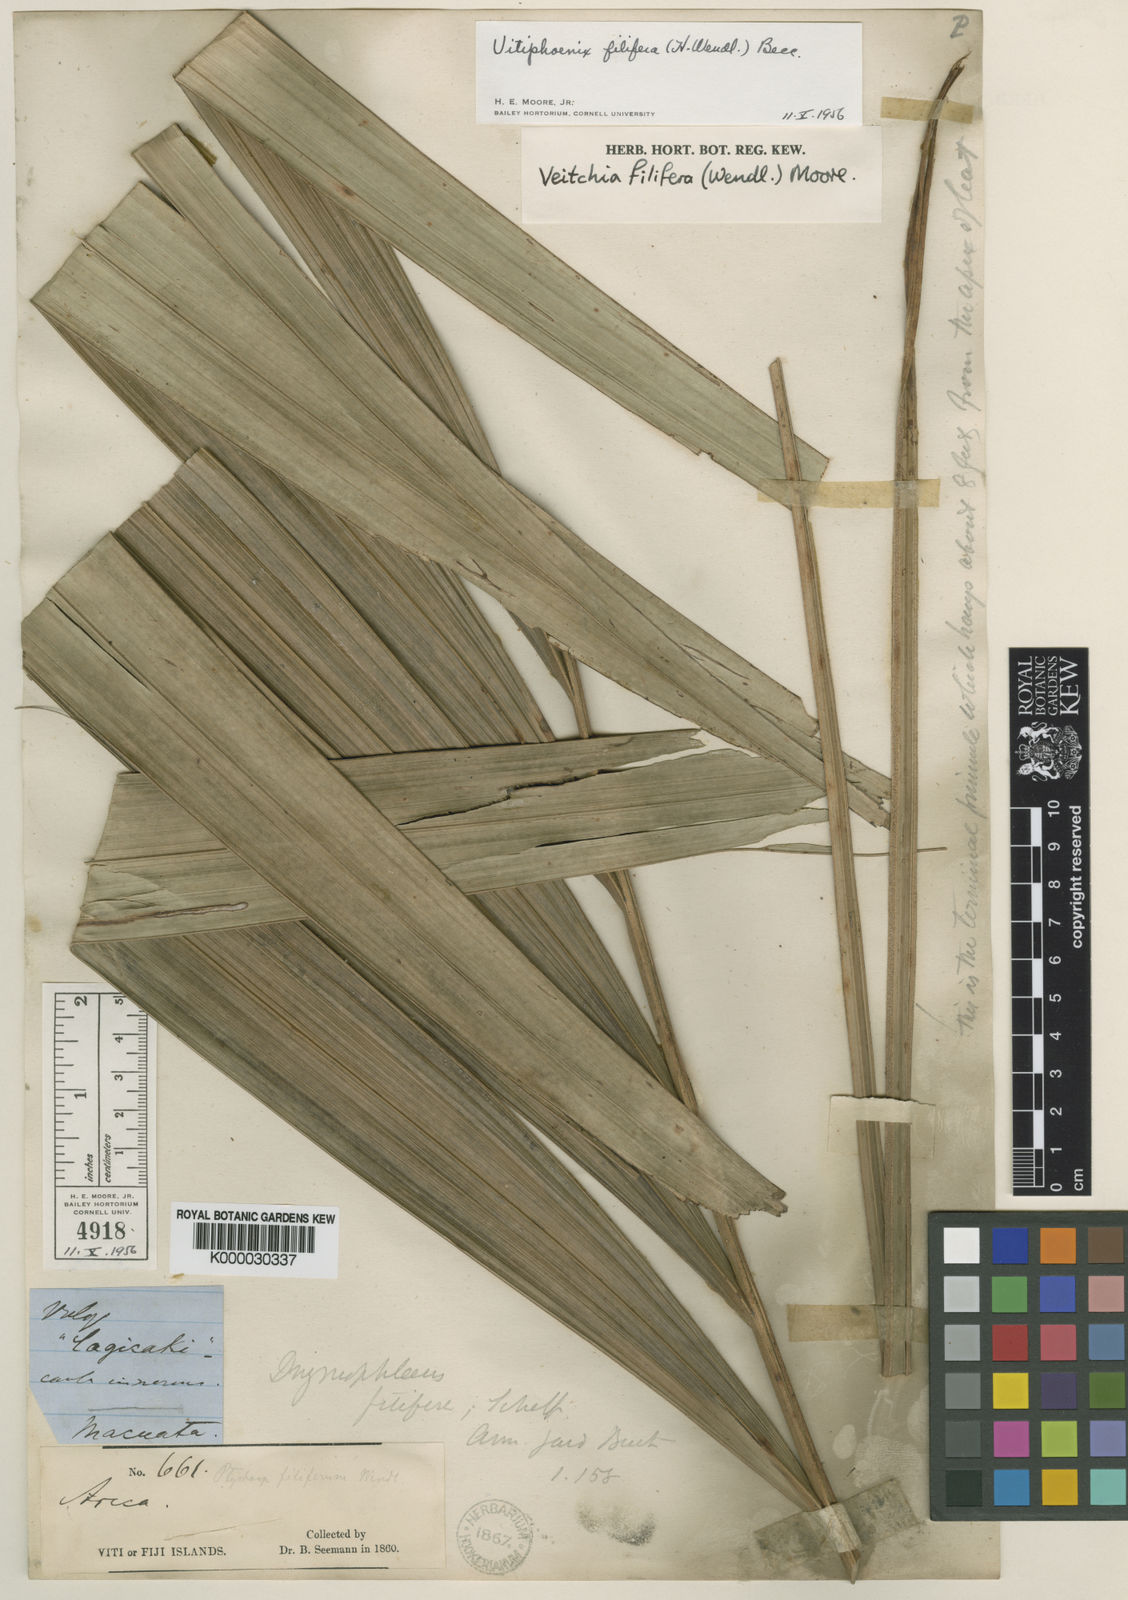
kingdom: Plantae
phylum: Tracheophyta
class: Liliopsida
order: Arecales
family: Arecaceae
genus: Veitchia
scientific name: Veitchia filifera
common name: Cagicake
